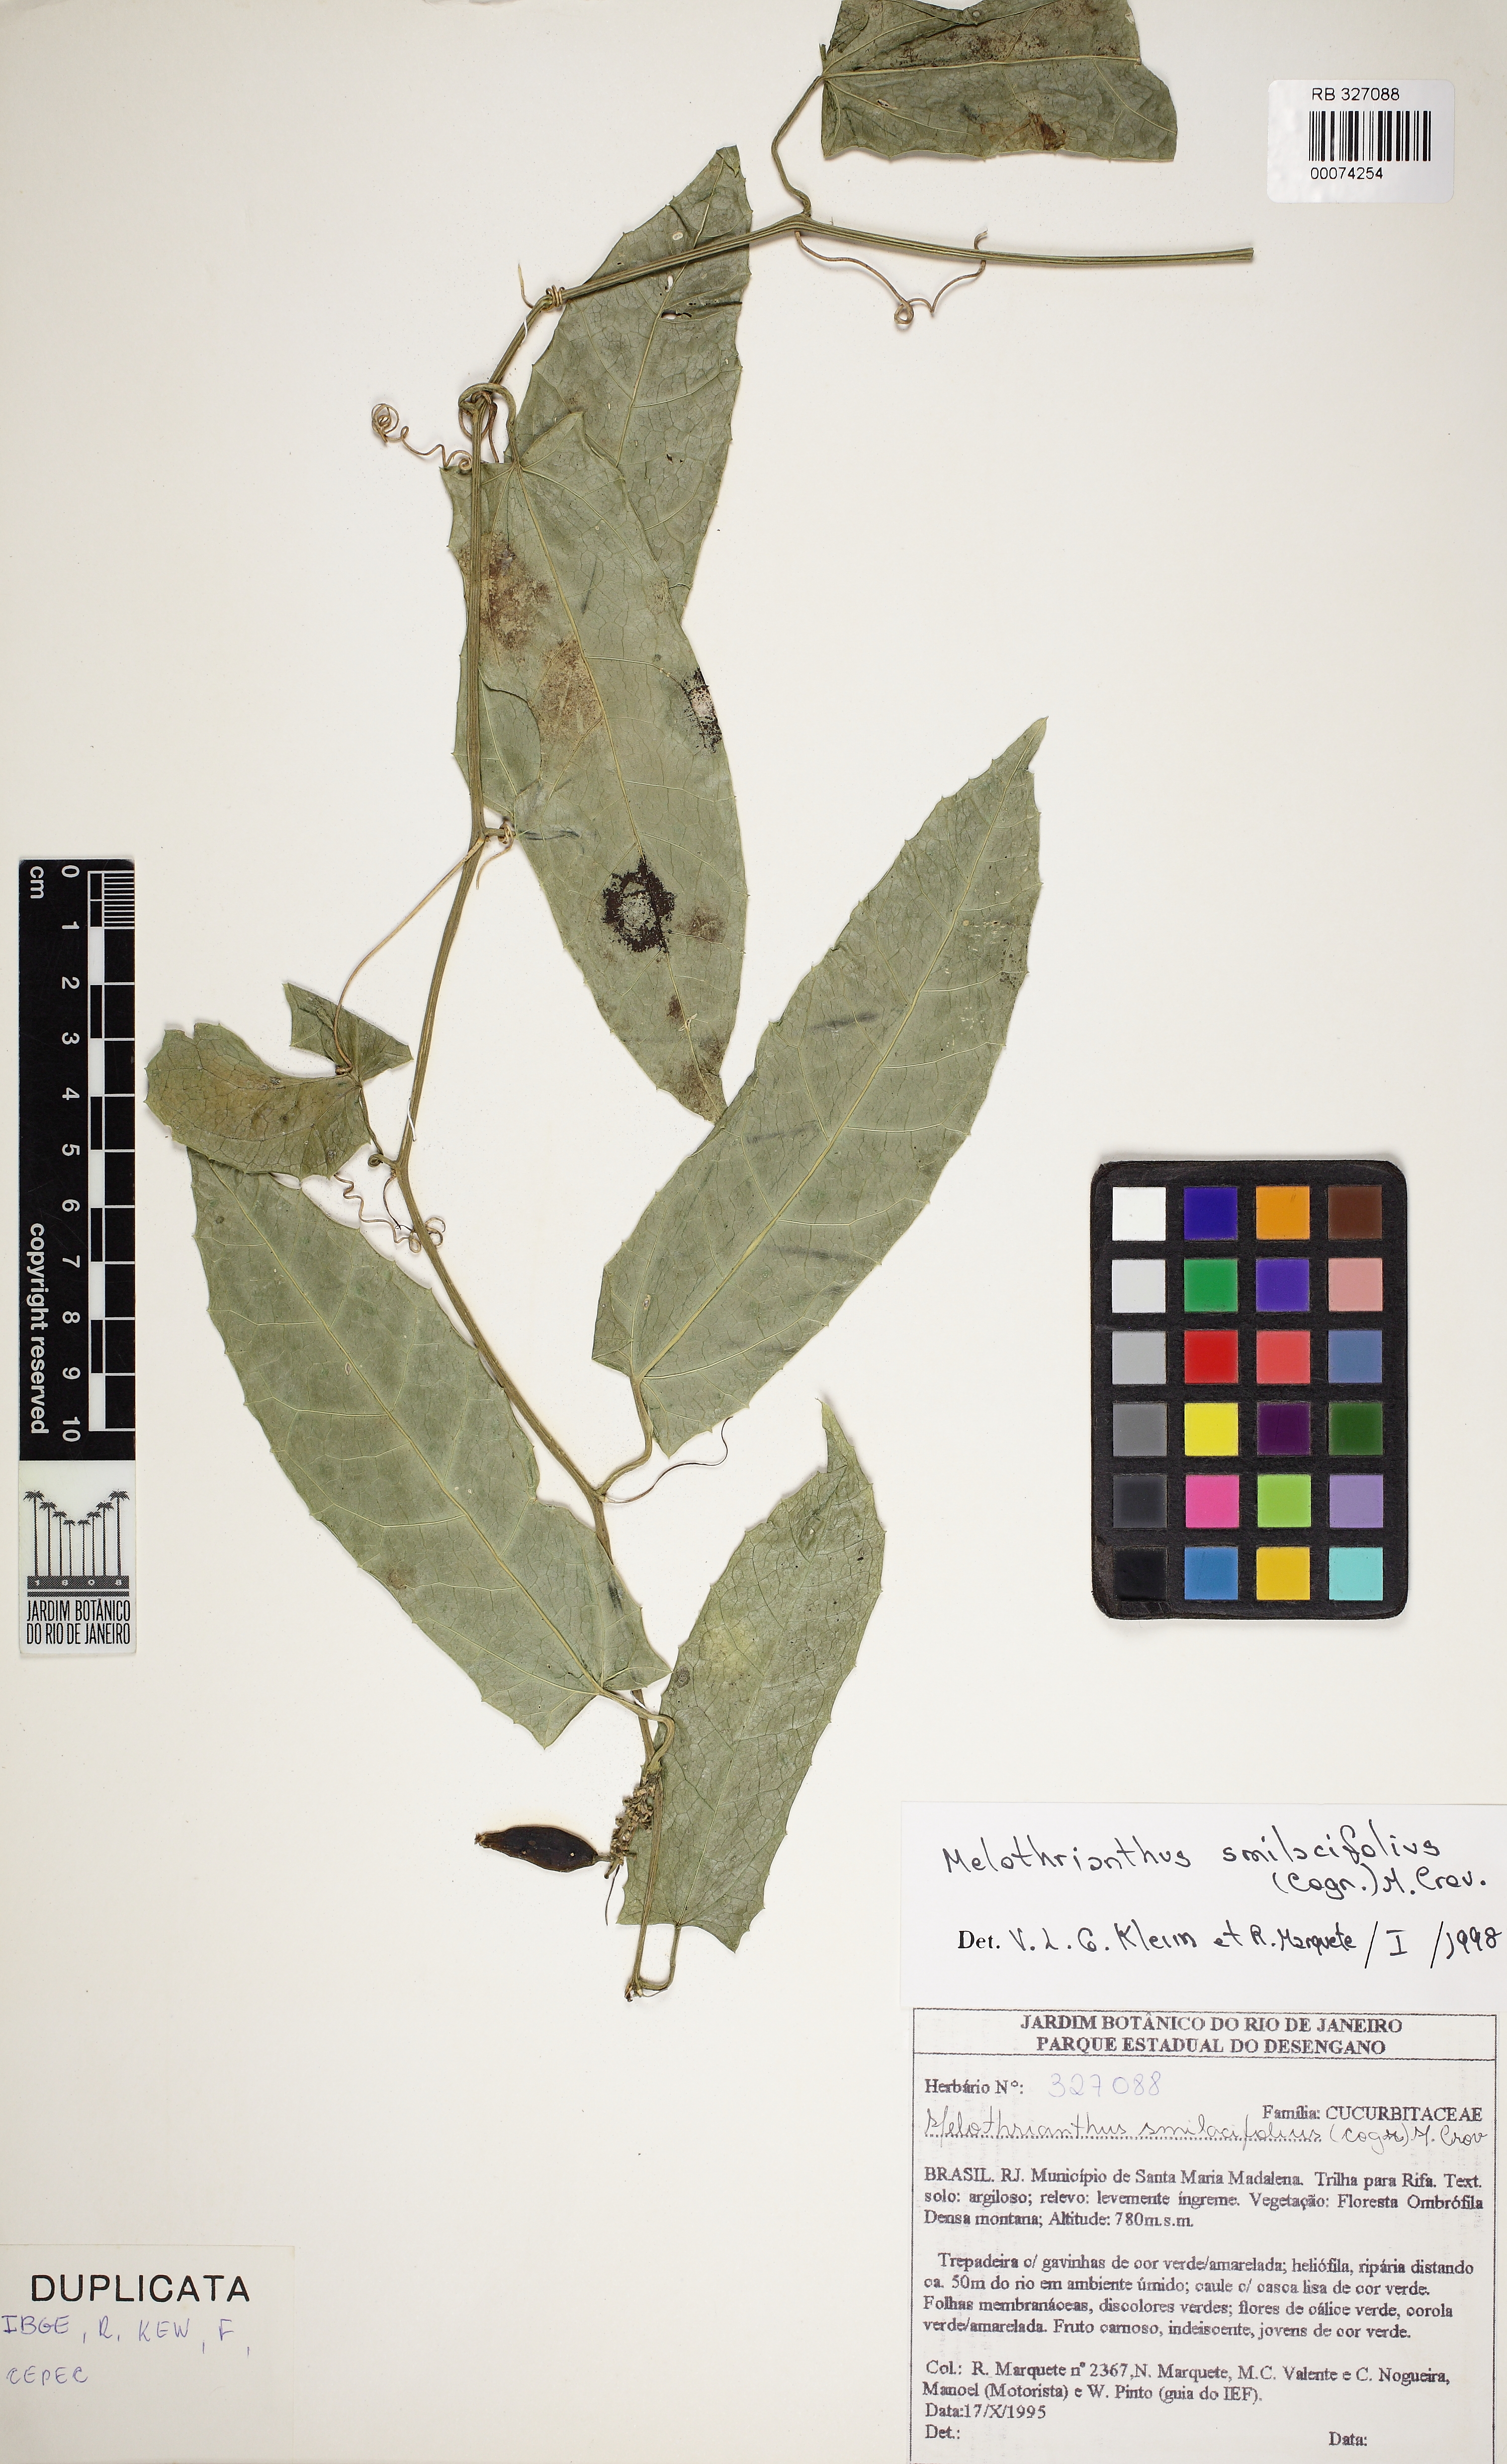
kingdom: Plantae
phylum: Tracheophyta
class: Magnoliopsida
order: Cucurbitales
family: Cucurbitaceae
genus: Apodanthera
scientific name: Apodanthera smilacifolia
